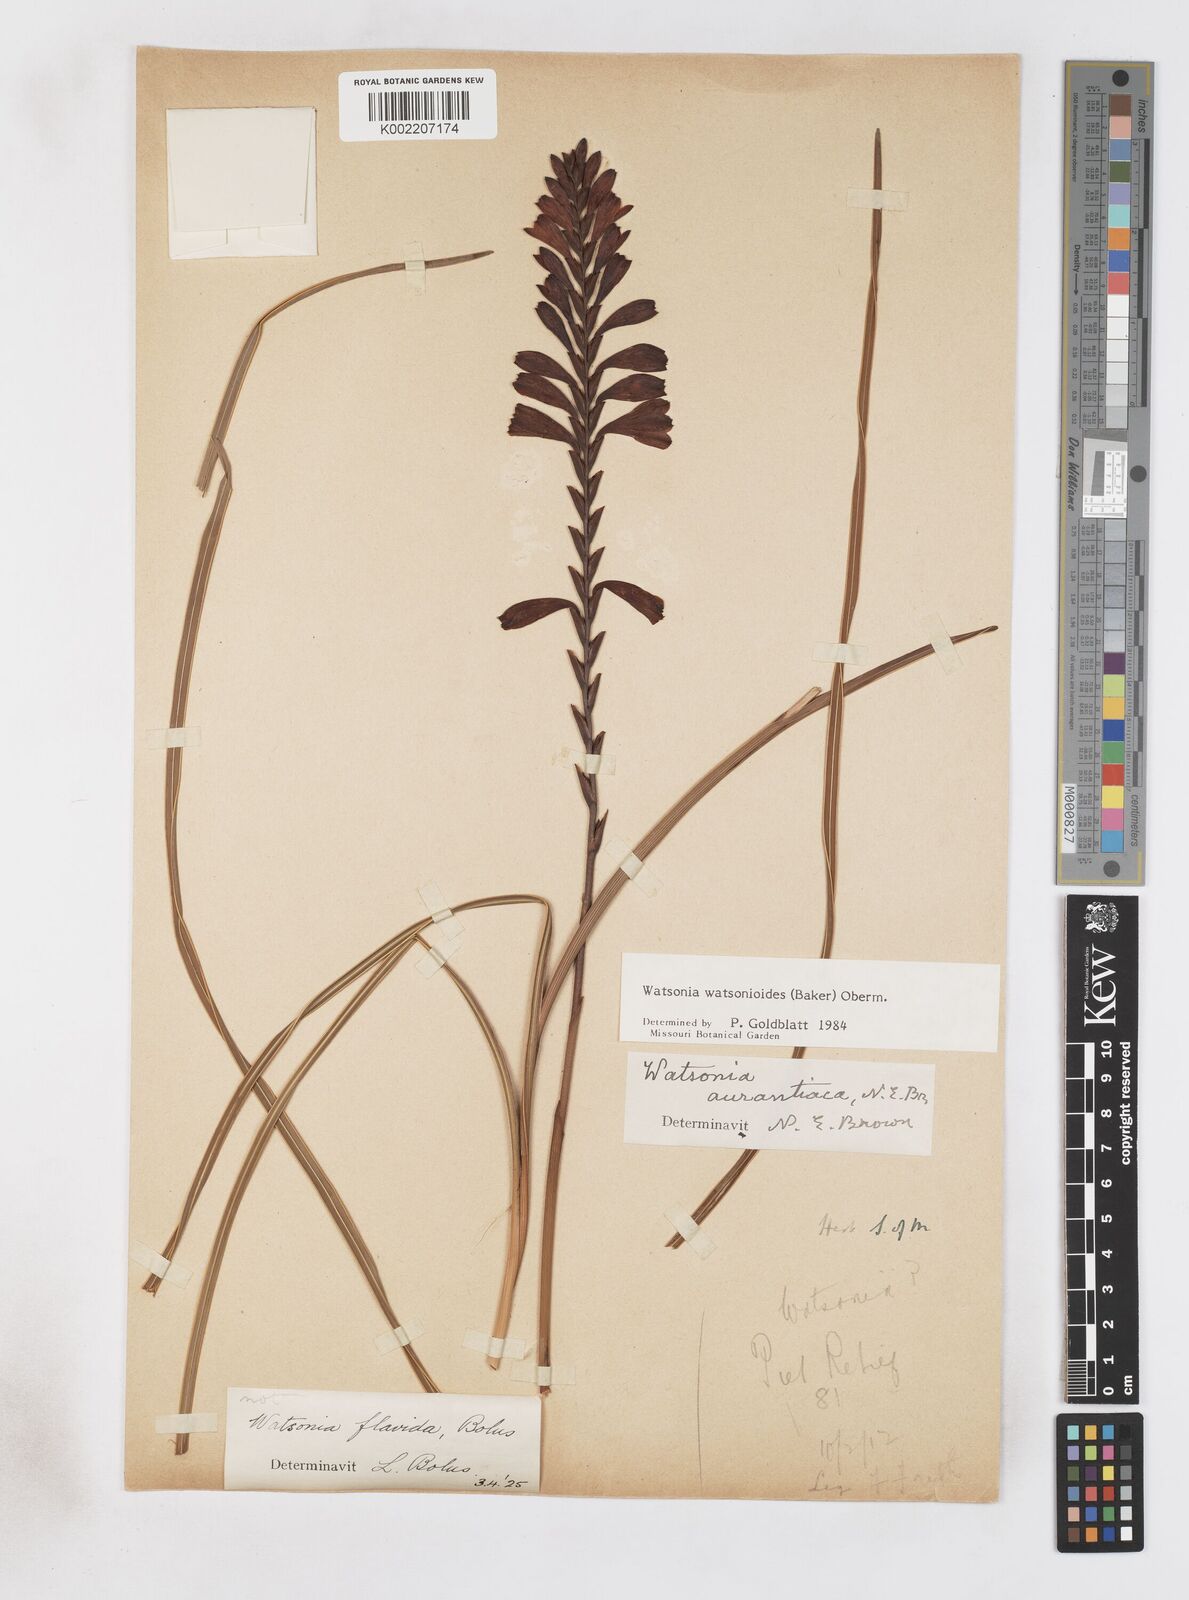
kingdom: Plantae
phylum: Tracheophyta
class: Liliopsida
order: Asparagales
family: Iridaceae
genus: Watsonia
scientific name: Watsonia watsonioides
